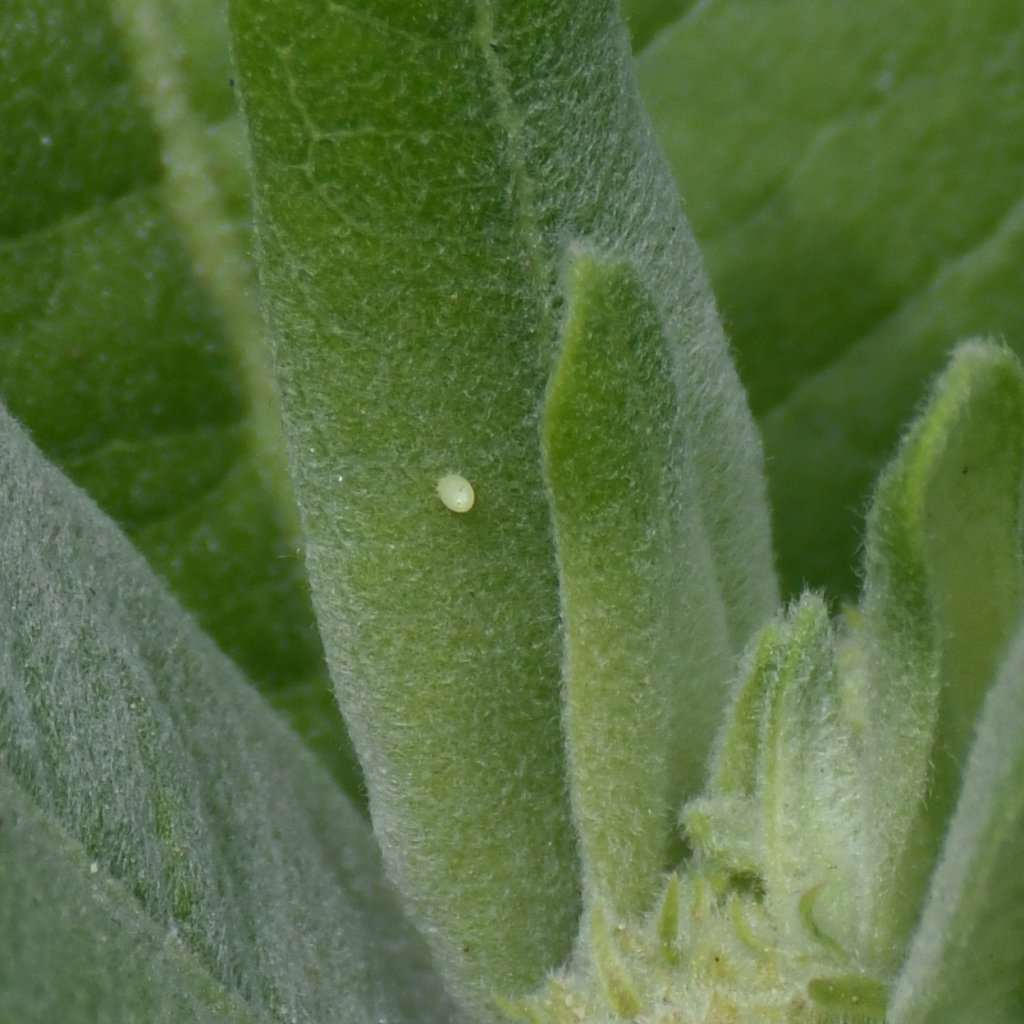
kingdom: Animalia
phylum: Arthropoda
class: Insecta
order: Lepidoptera
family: Nymphalidae
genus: Danaus
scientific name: Danaus plexippus
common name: Monarch
